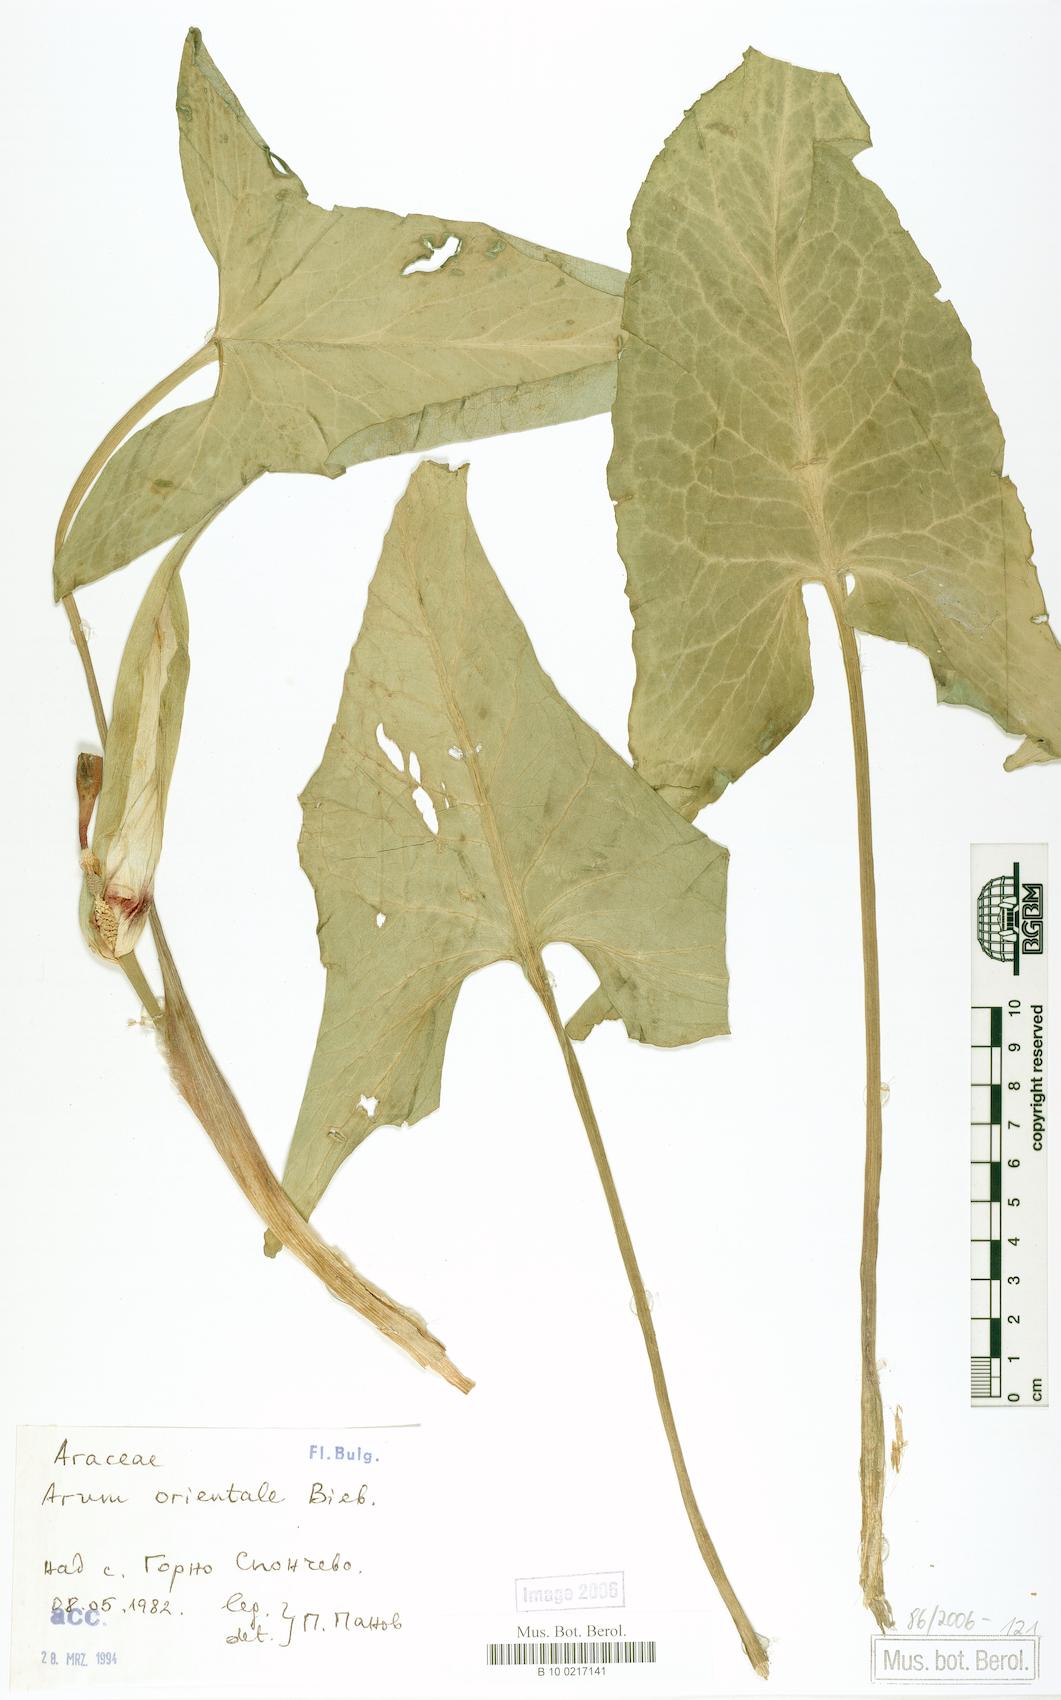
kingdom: Plantae
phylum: Tracheophyta
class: Liliopsida
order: Alismatales
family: Araceae
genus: Arum
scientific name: Arum orientale
